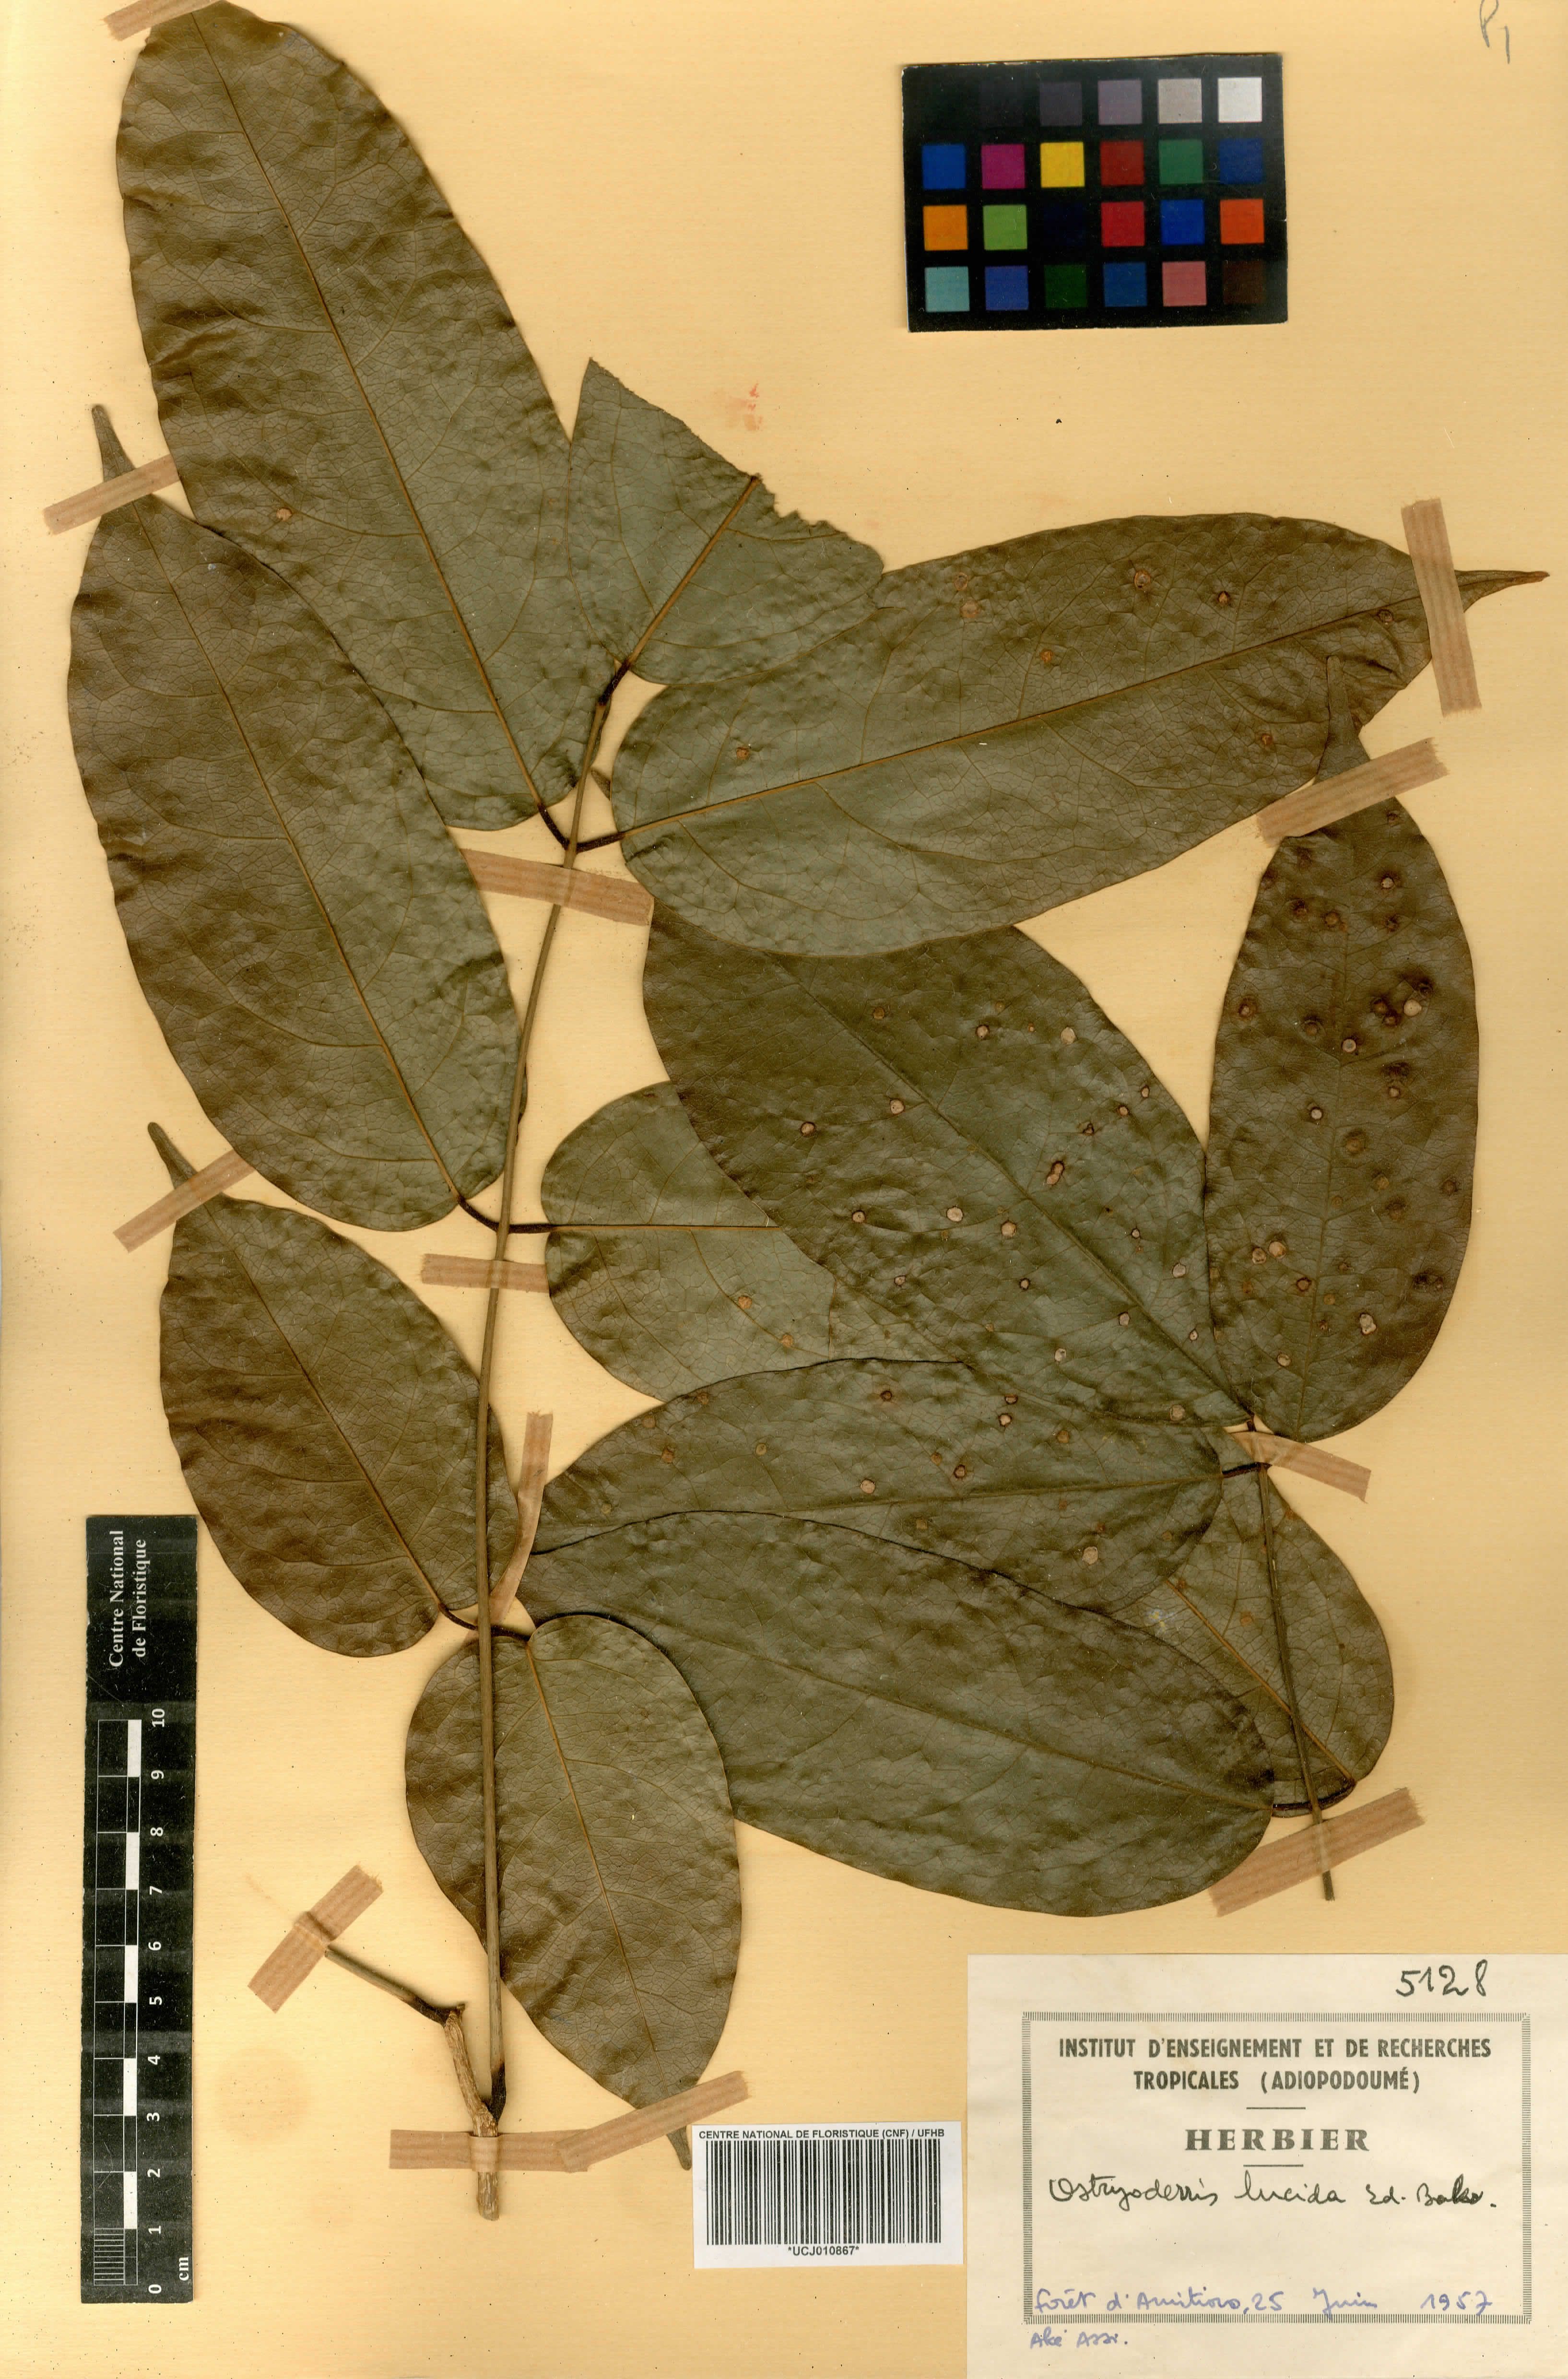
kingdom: Plantae
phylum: Tracheophyta
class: Magnoliopsida
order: Fabales
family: Fabaceae
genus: Aganope
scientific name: Aganope lucida
